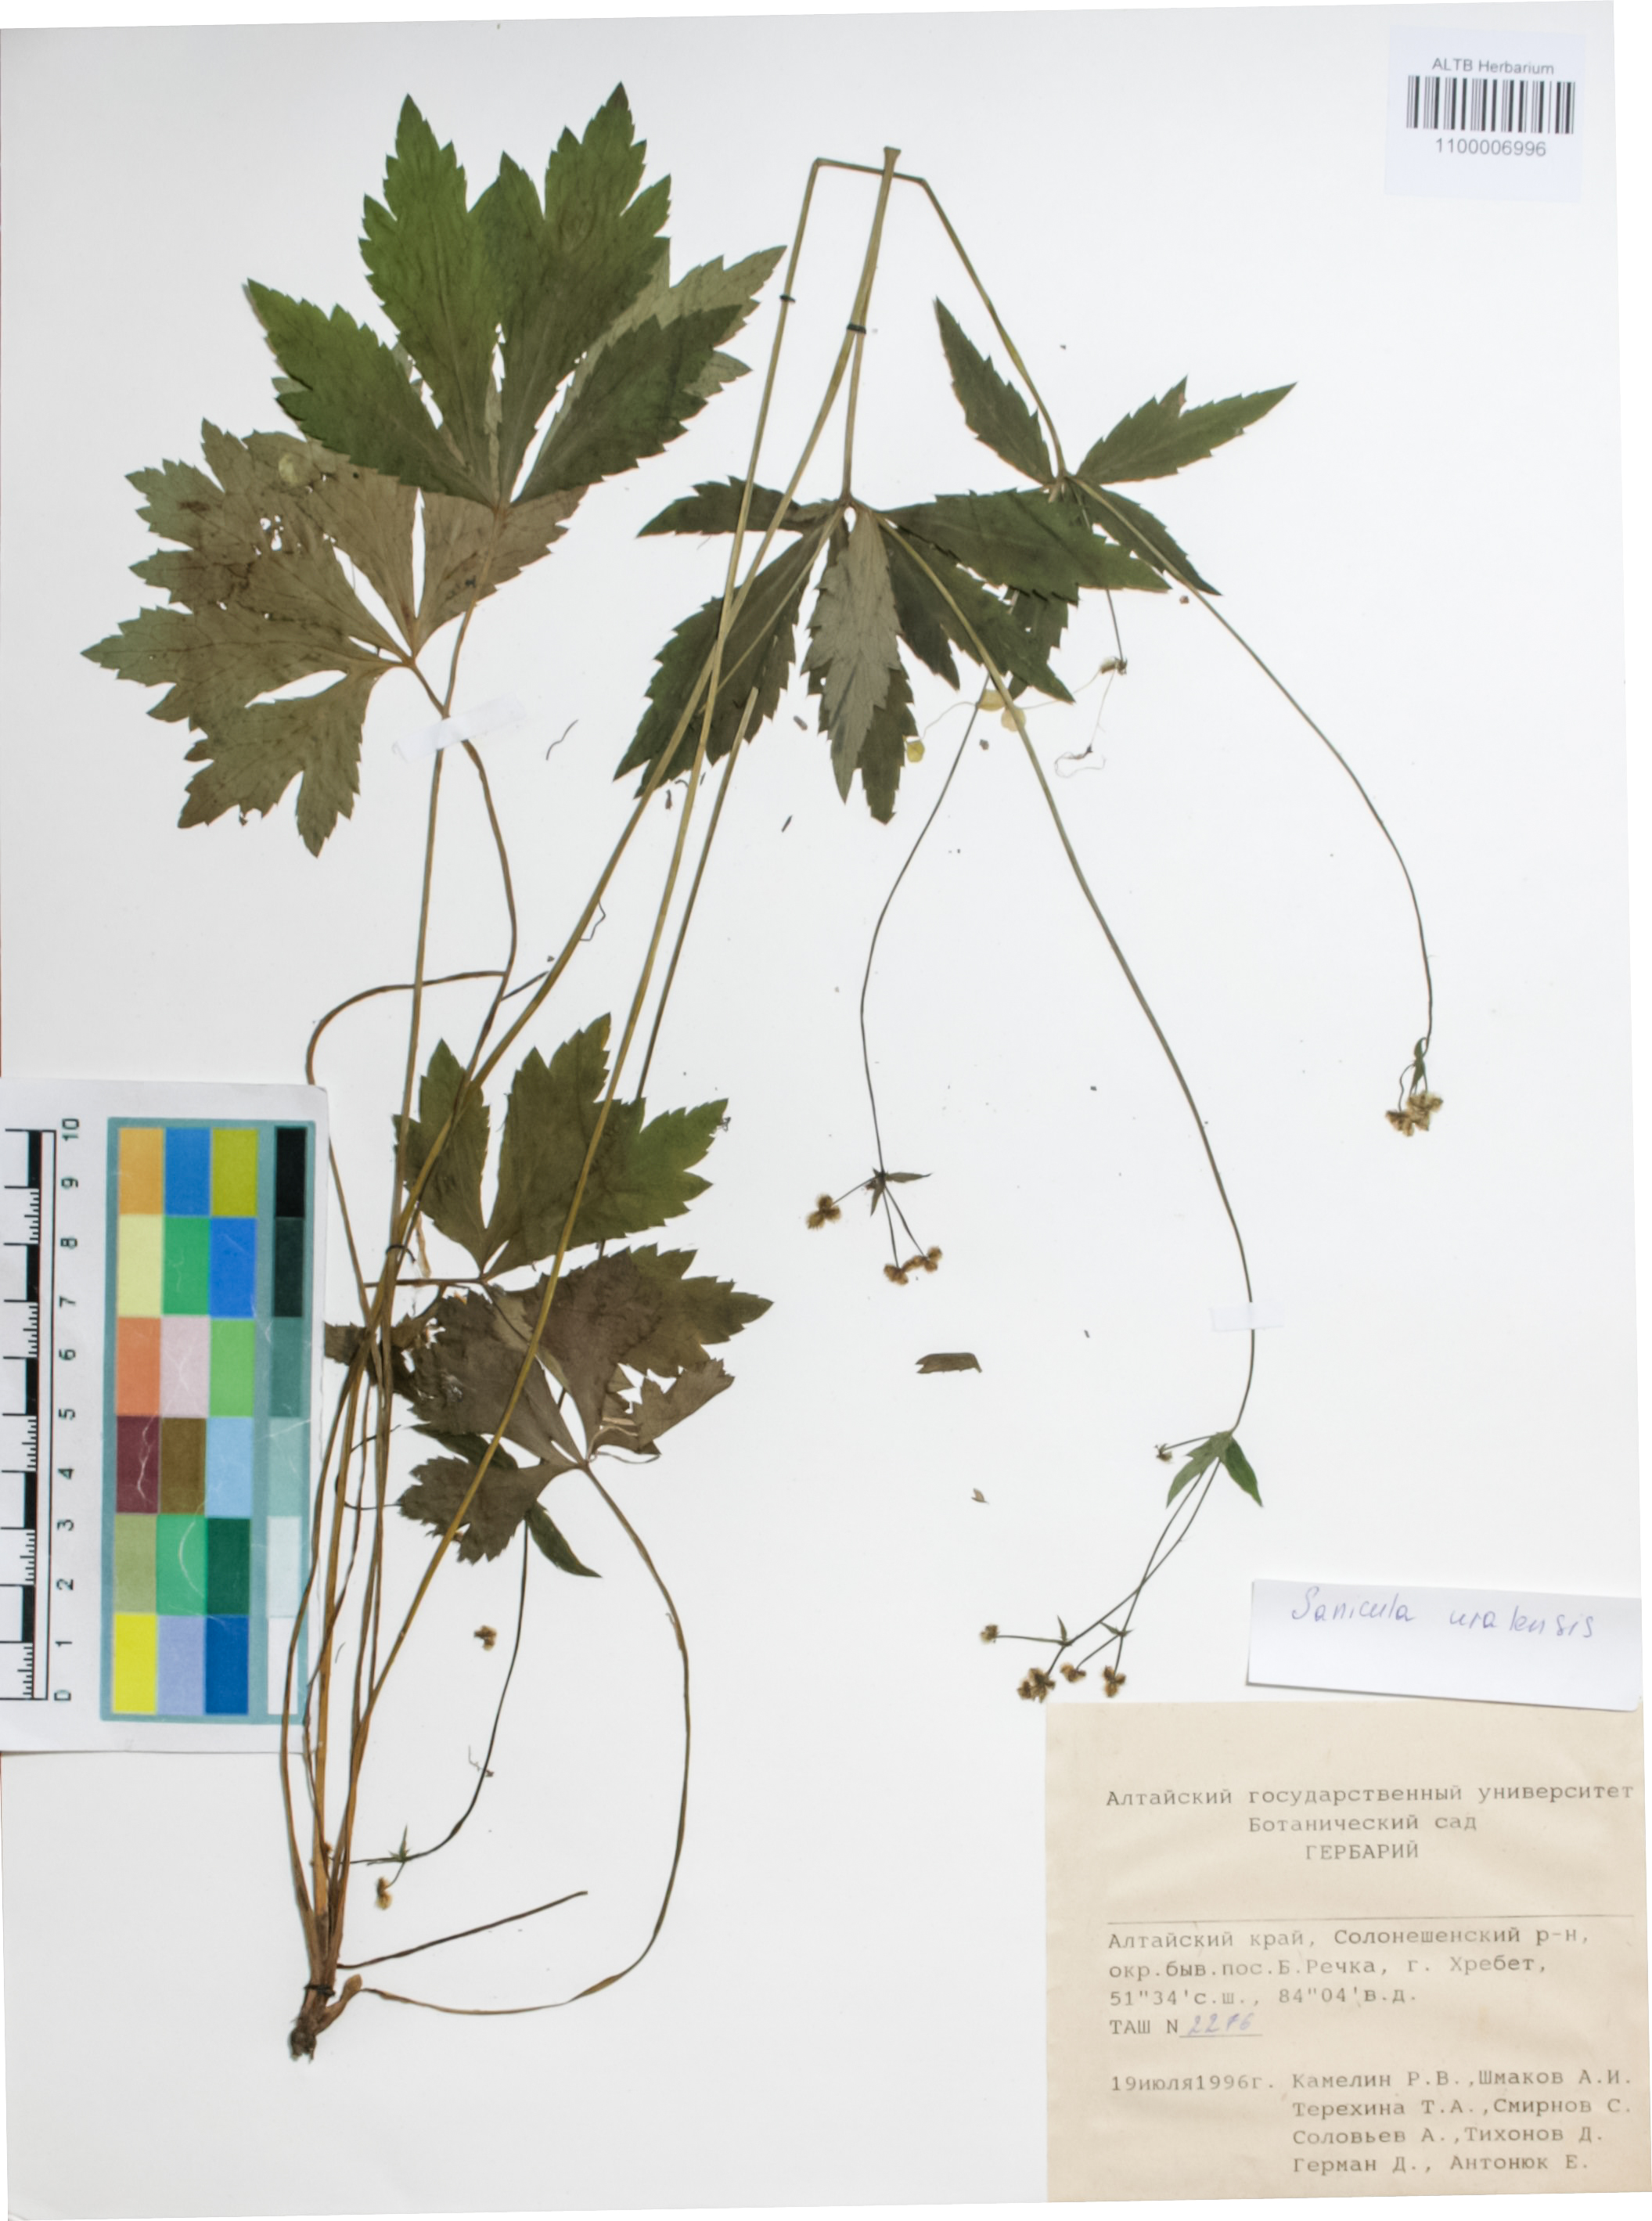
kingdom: Plantae
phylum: Tracheophyta
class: Magnoliopsida
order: Apiales
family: Apiaceae
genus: Sanicula
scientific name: Sanicula giraldii
